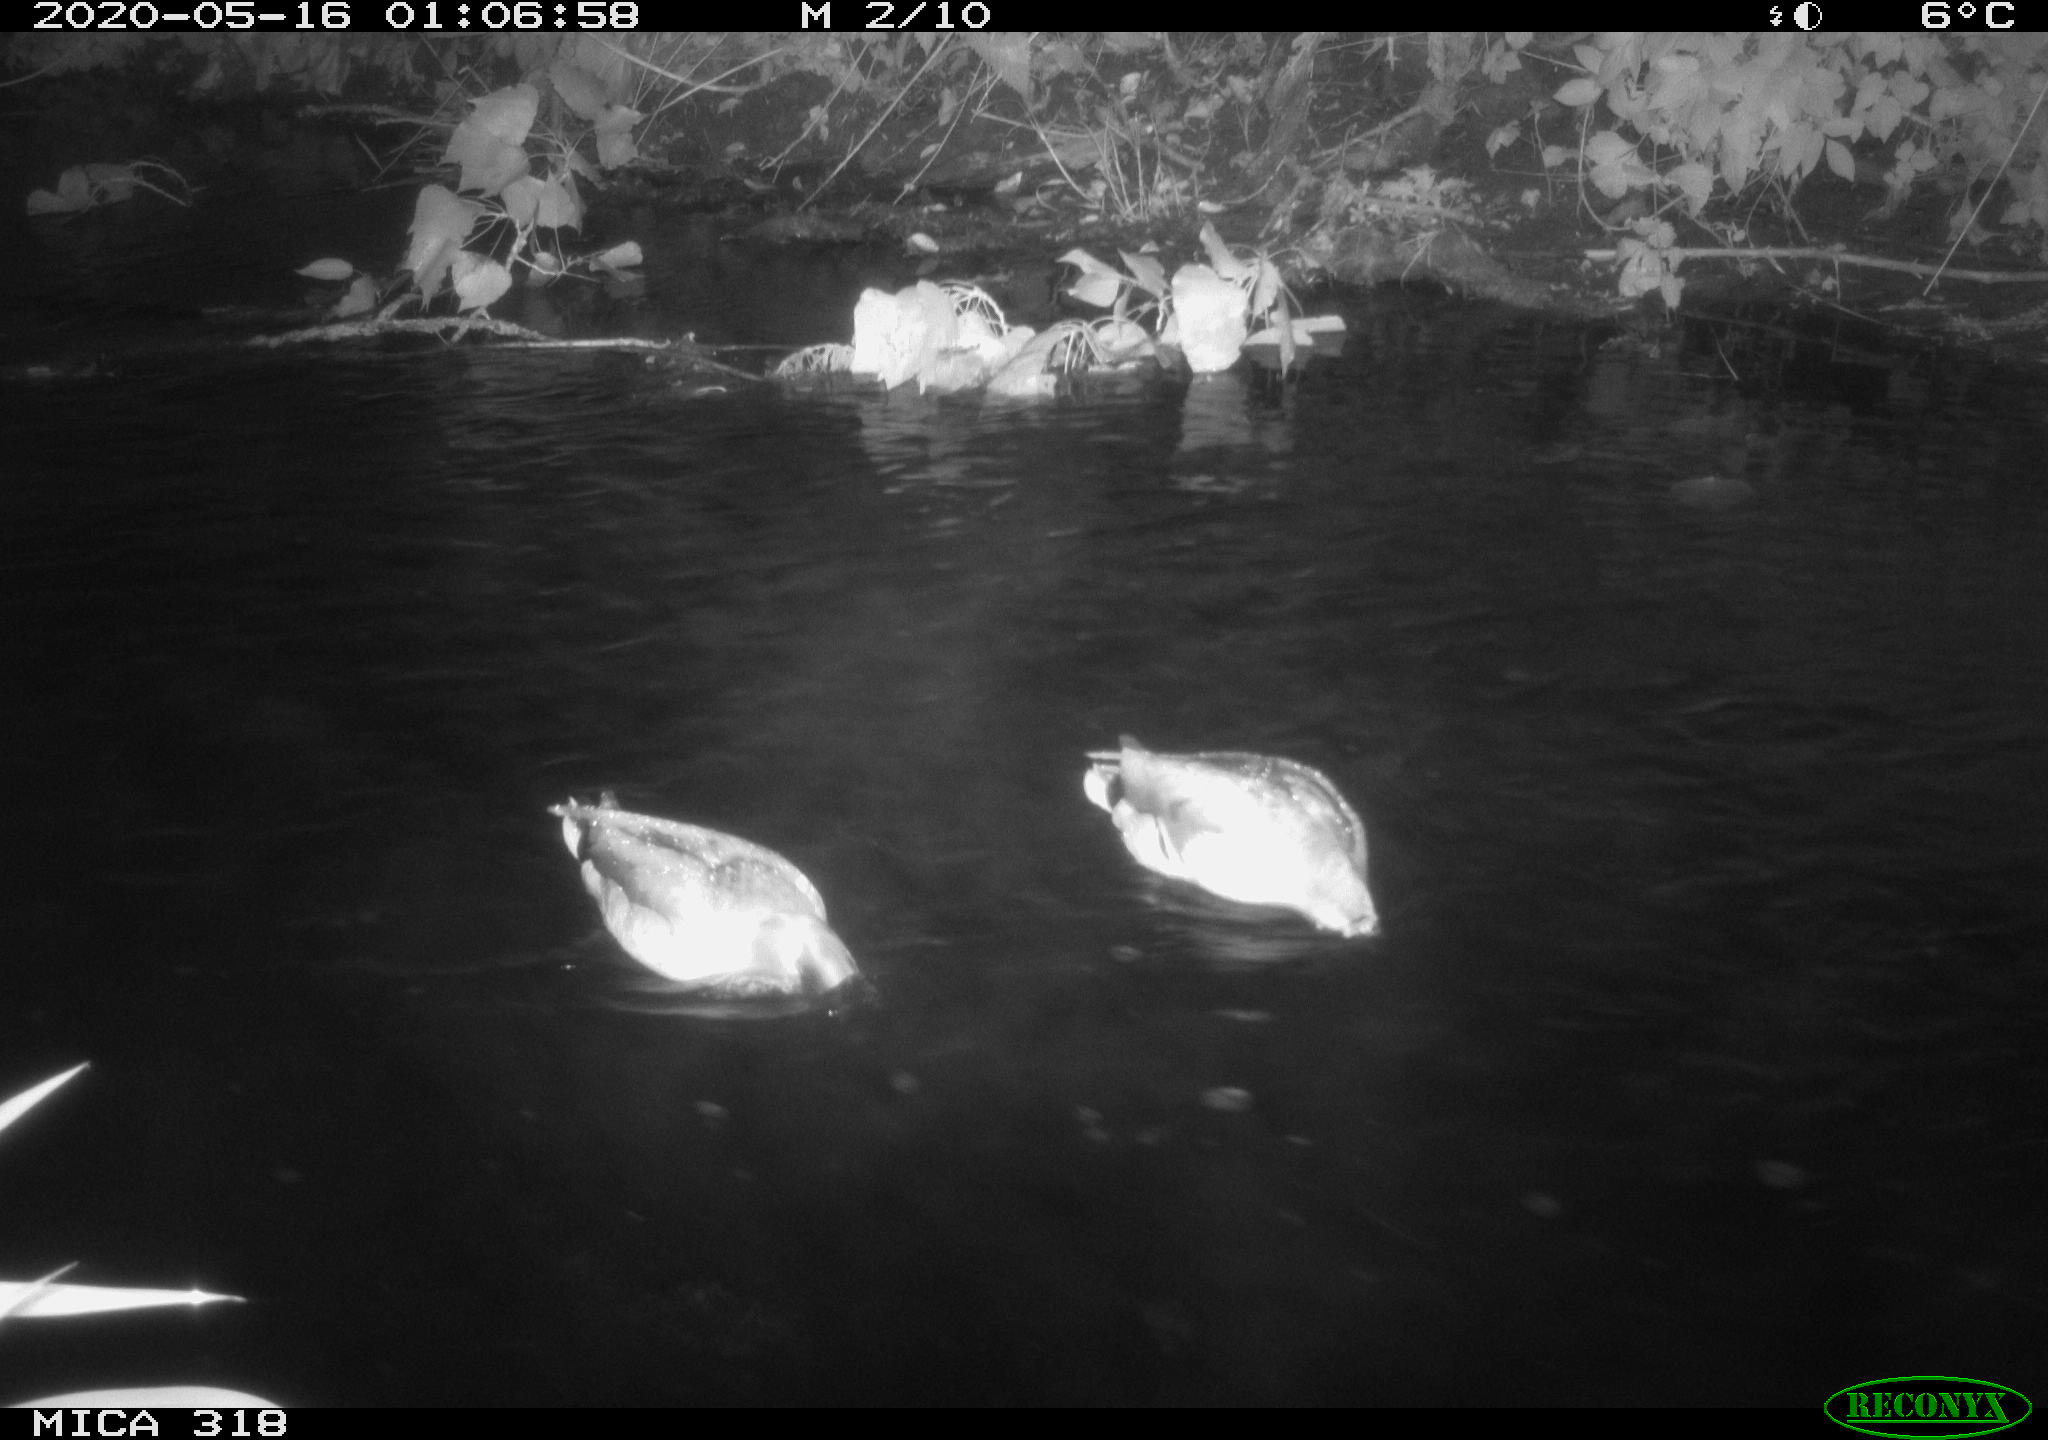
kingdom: Animalia
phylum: Chordata
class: Aves
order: Anseriformes
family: Anatidae
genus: Anas
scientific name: Anas platyrhynchos
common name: Mallard
